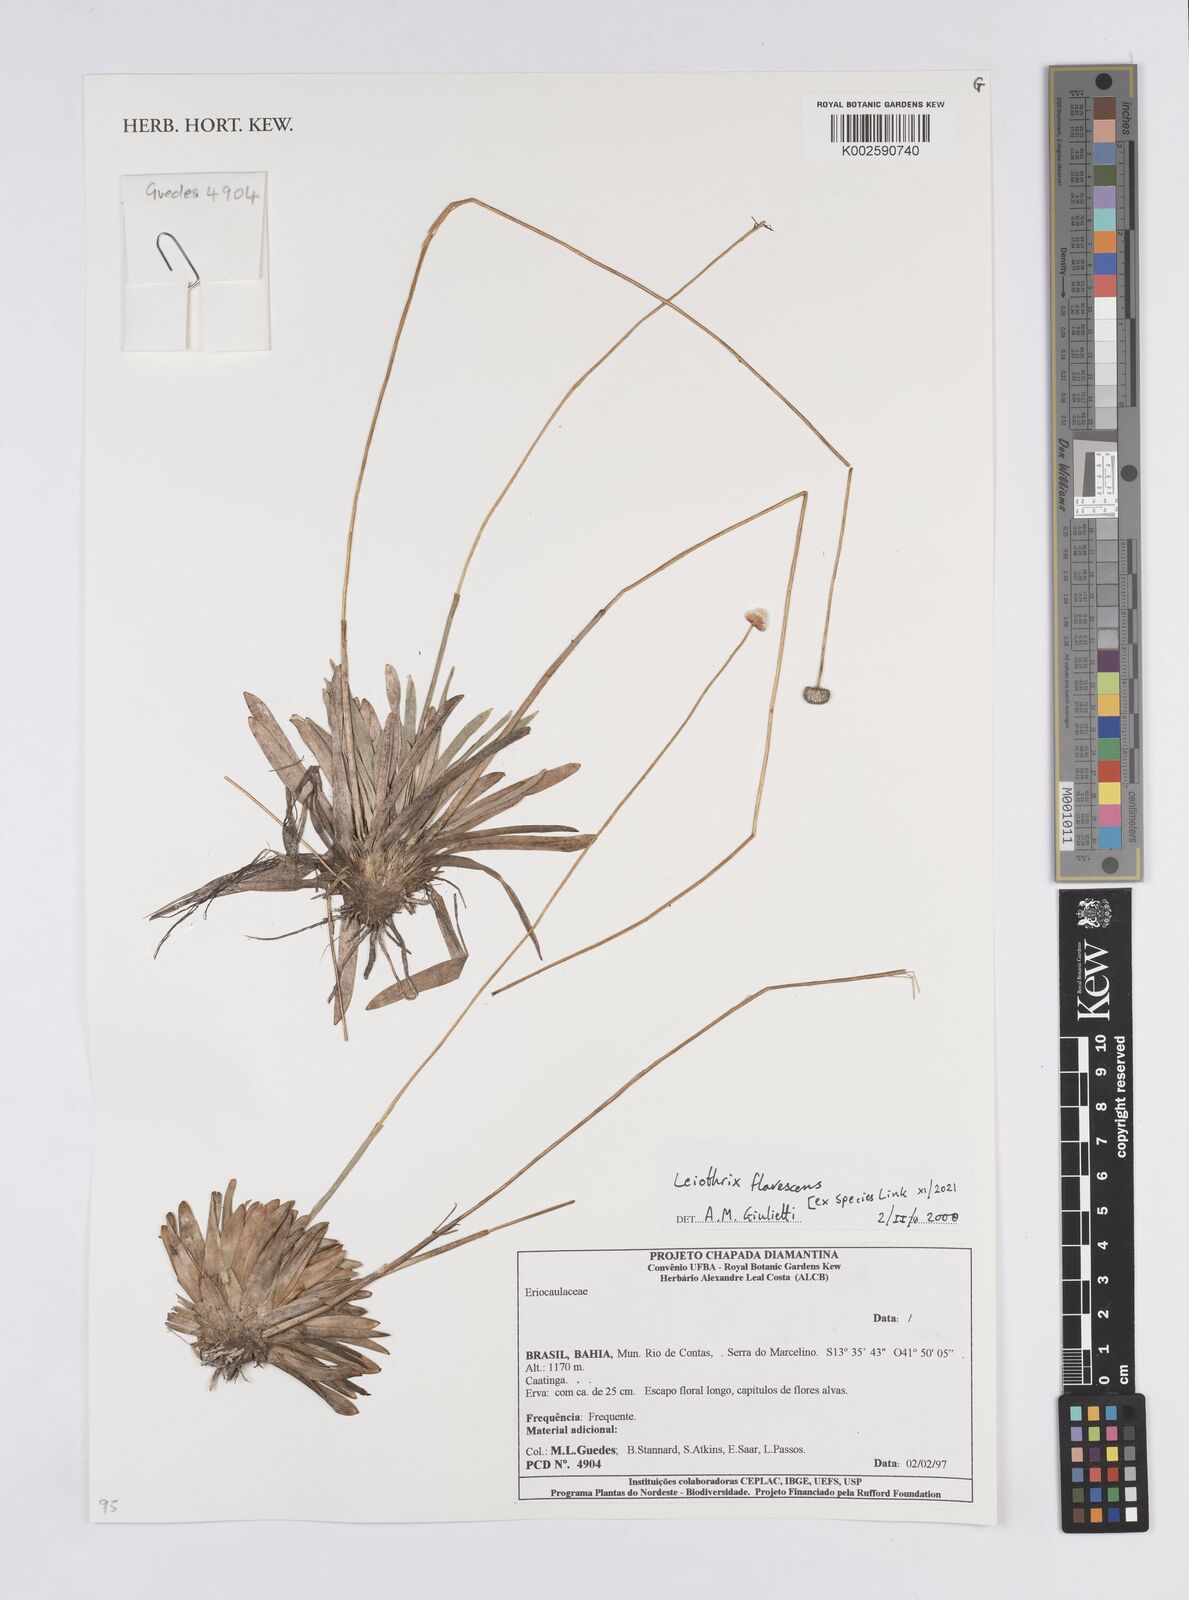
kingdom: Plantae
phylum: Tracheophyta
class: Liliopsida
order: Poales
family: Eriocaulaceae
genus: Leiothrix
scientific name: Leiothrix flavescens
